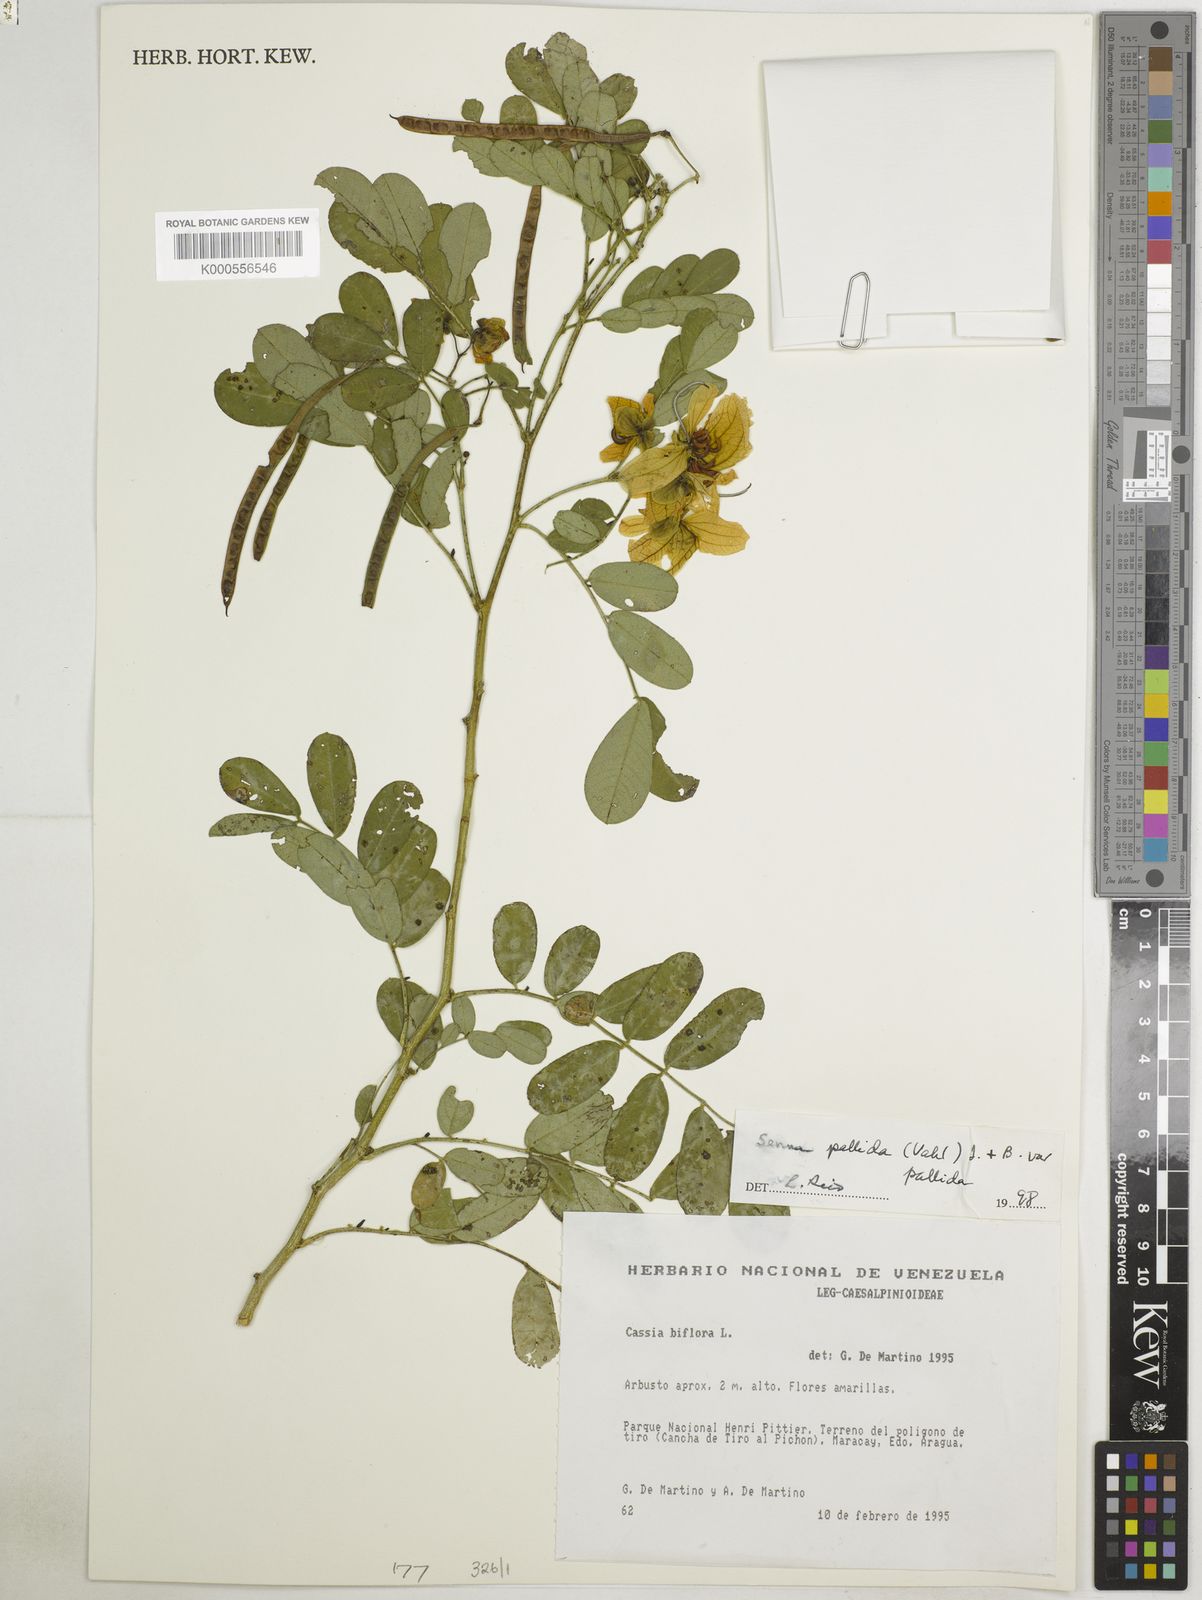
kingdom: Plantae
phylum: Tracheophyta
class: Magnoliopsida
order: Fabales
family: Fabaceae
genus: Senna
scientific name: Senna pallida
